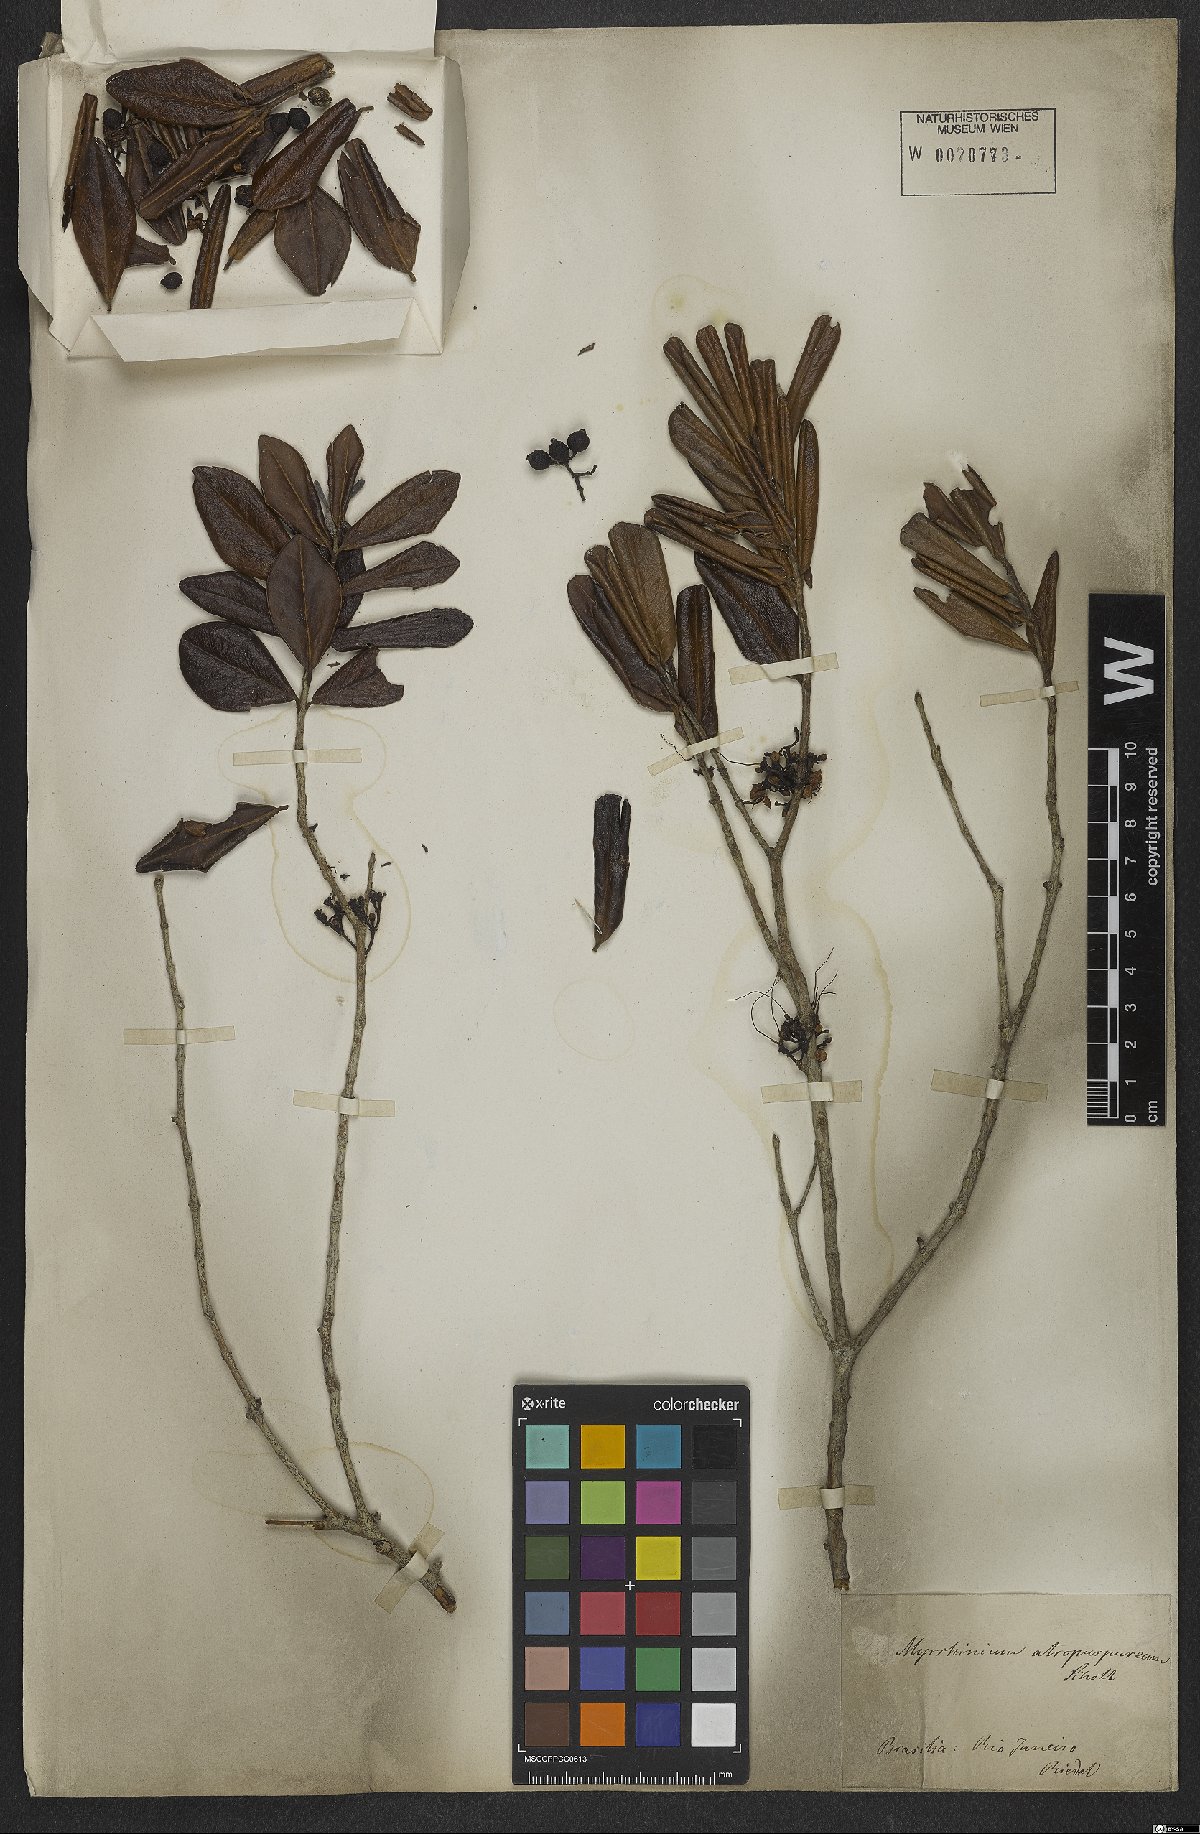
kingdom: Plantae
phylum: Tracheophyta
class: Magnoliopsida
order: Myrtales
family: Myrtaceae
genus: Myrrhinium
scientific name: Myrrhinium atropurpureum
